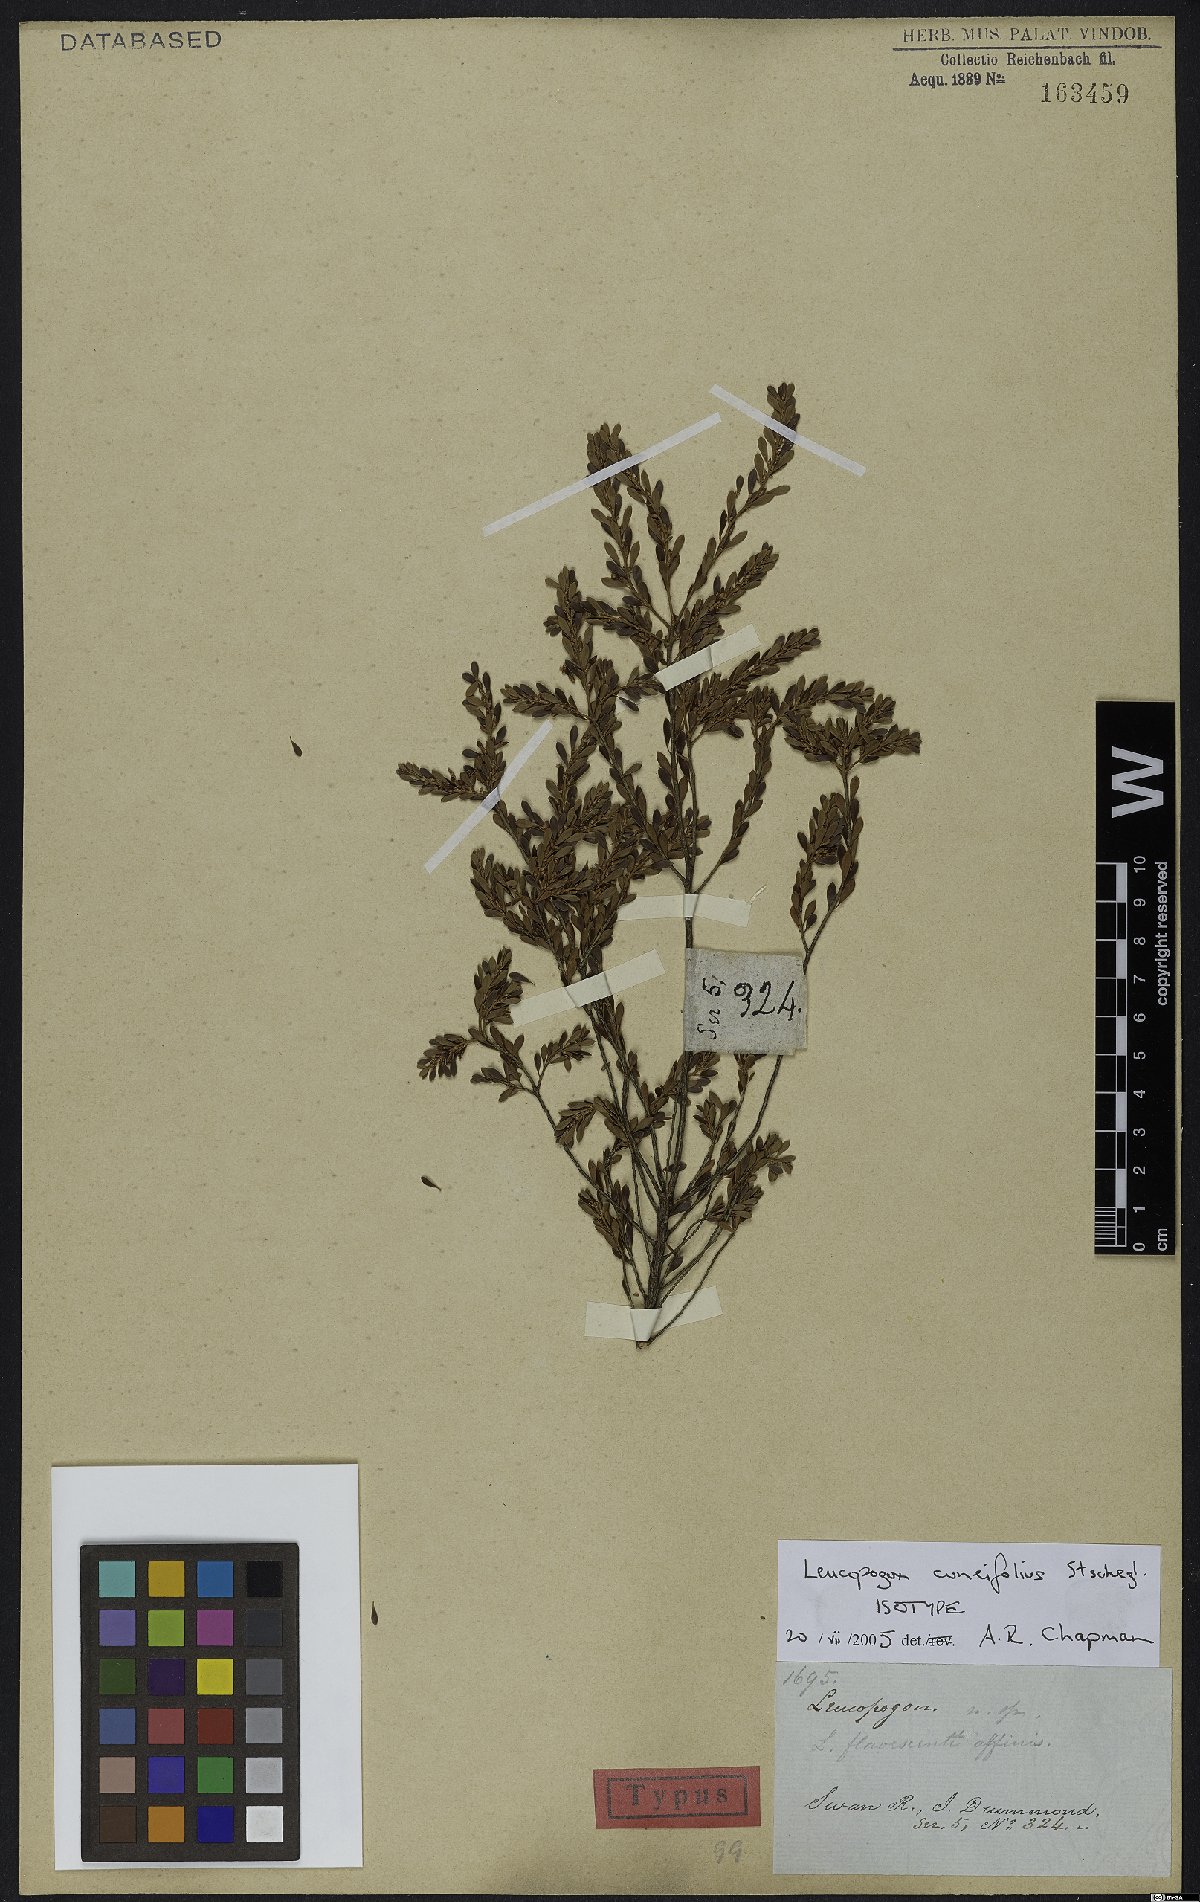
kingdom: Plantae
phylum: Tracheophyta
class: Magnoliopsida
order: Ericales
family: Ericaceae
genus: Styphelia
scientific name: Styphelia lissanthoides
